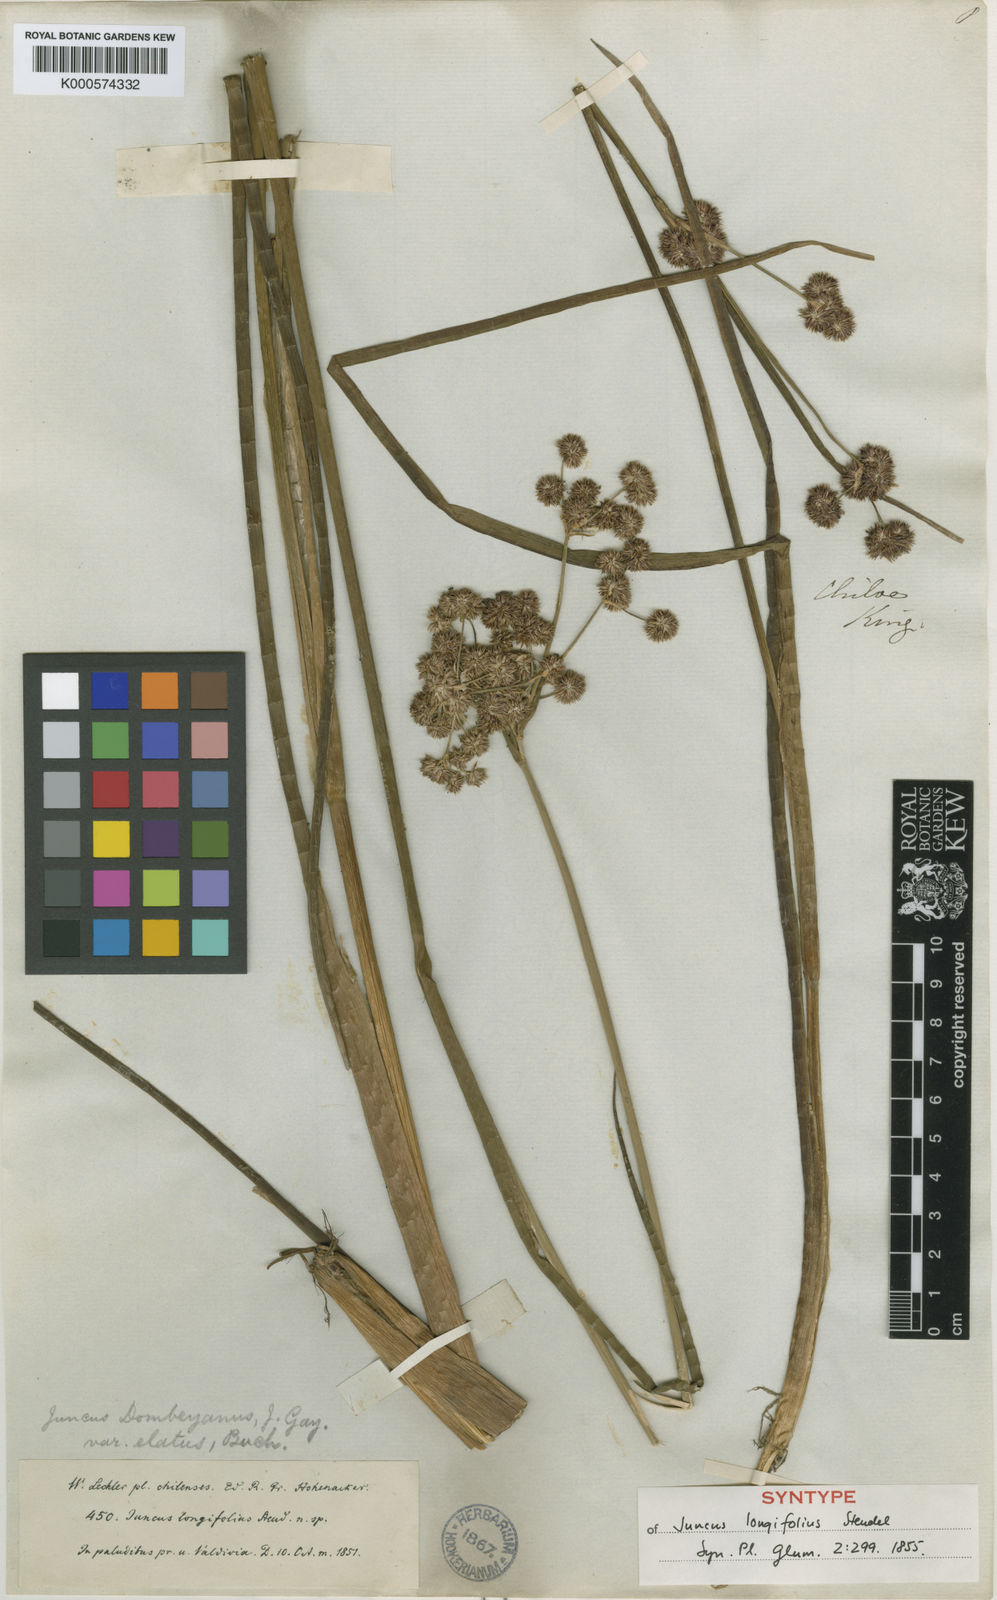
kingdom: Plantae
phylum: Tracheophyta
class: Liliopsida
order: Poales
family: Juncaceae
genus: Juncus
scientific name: Juncus microcephalus
